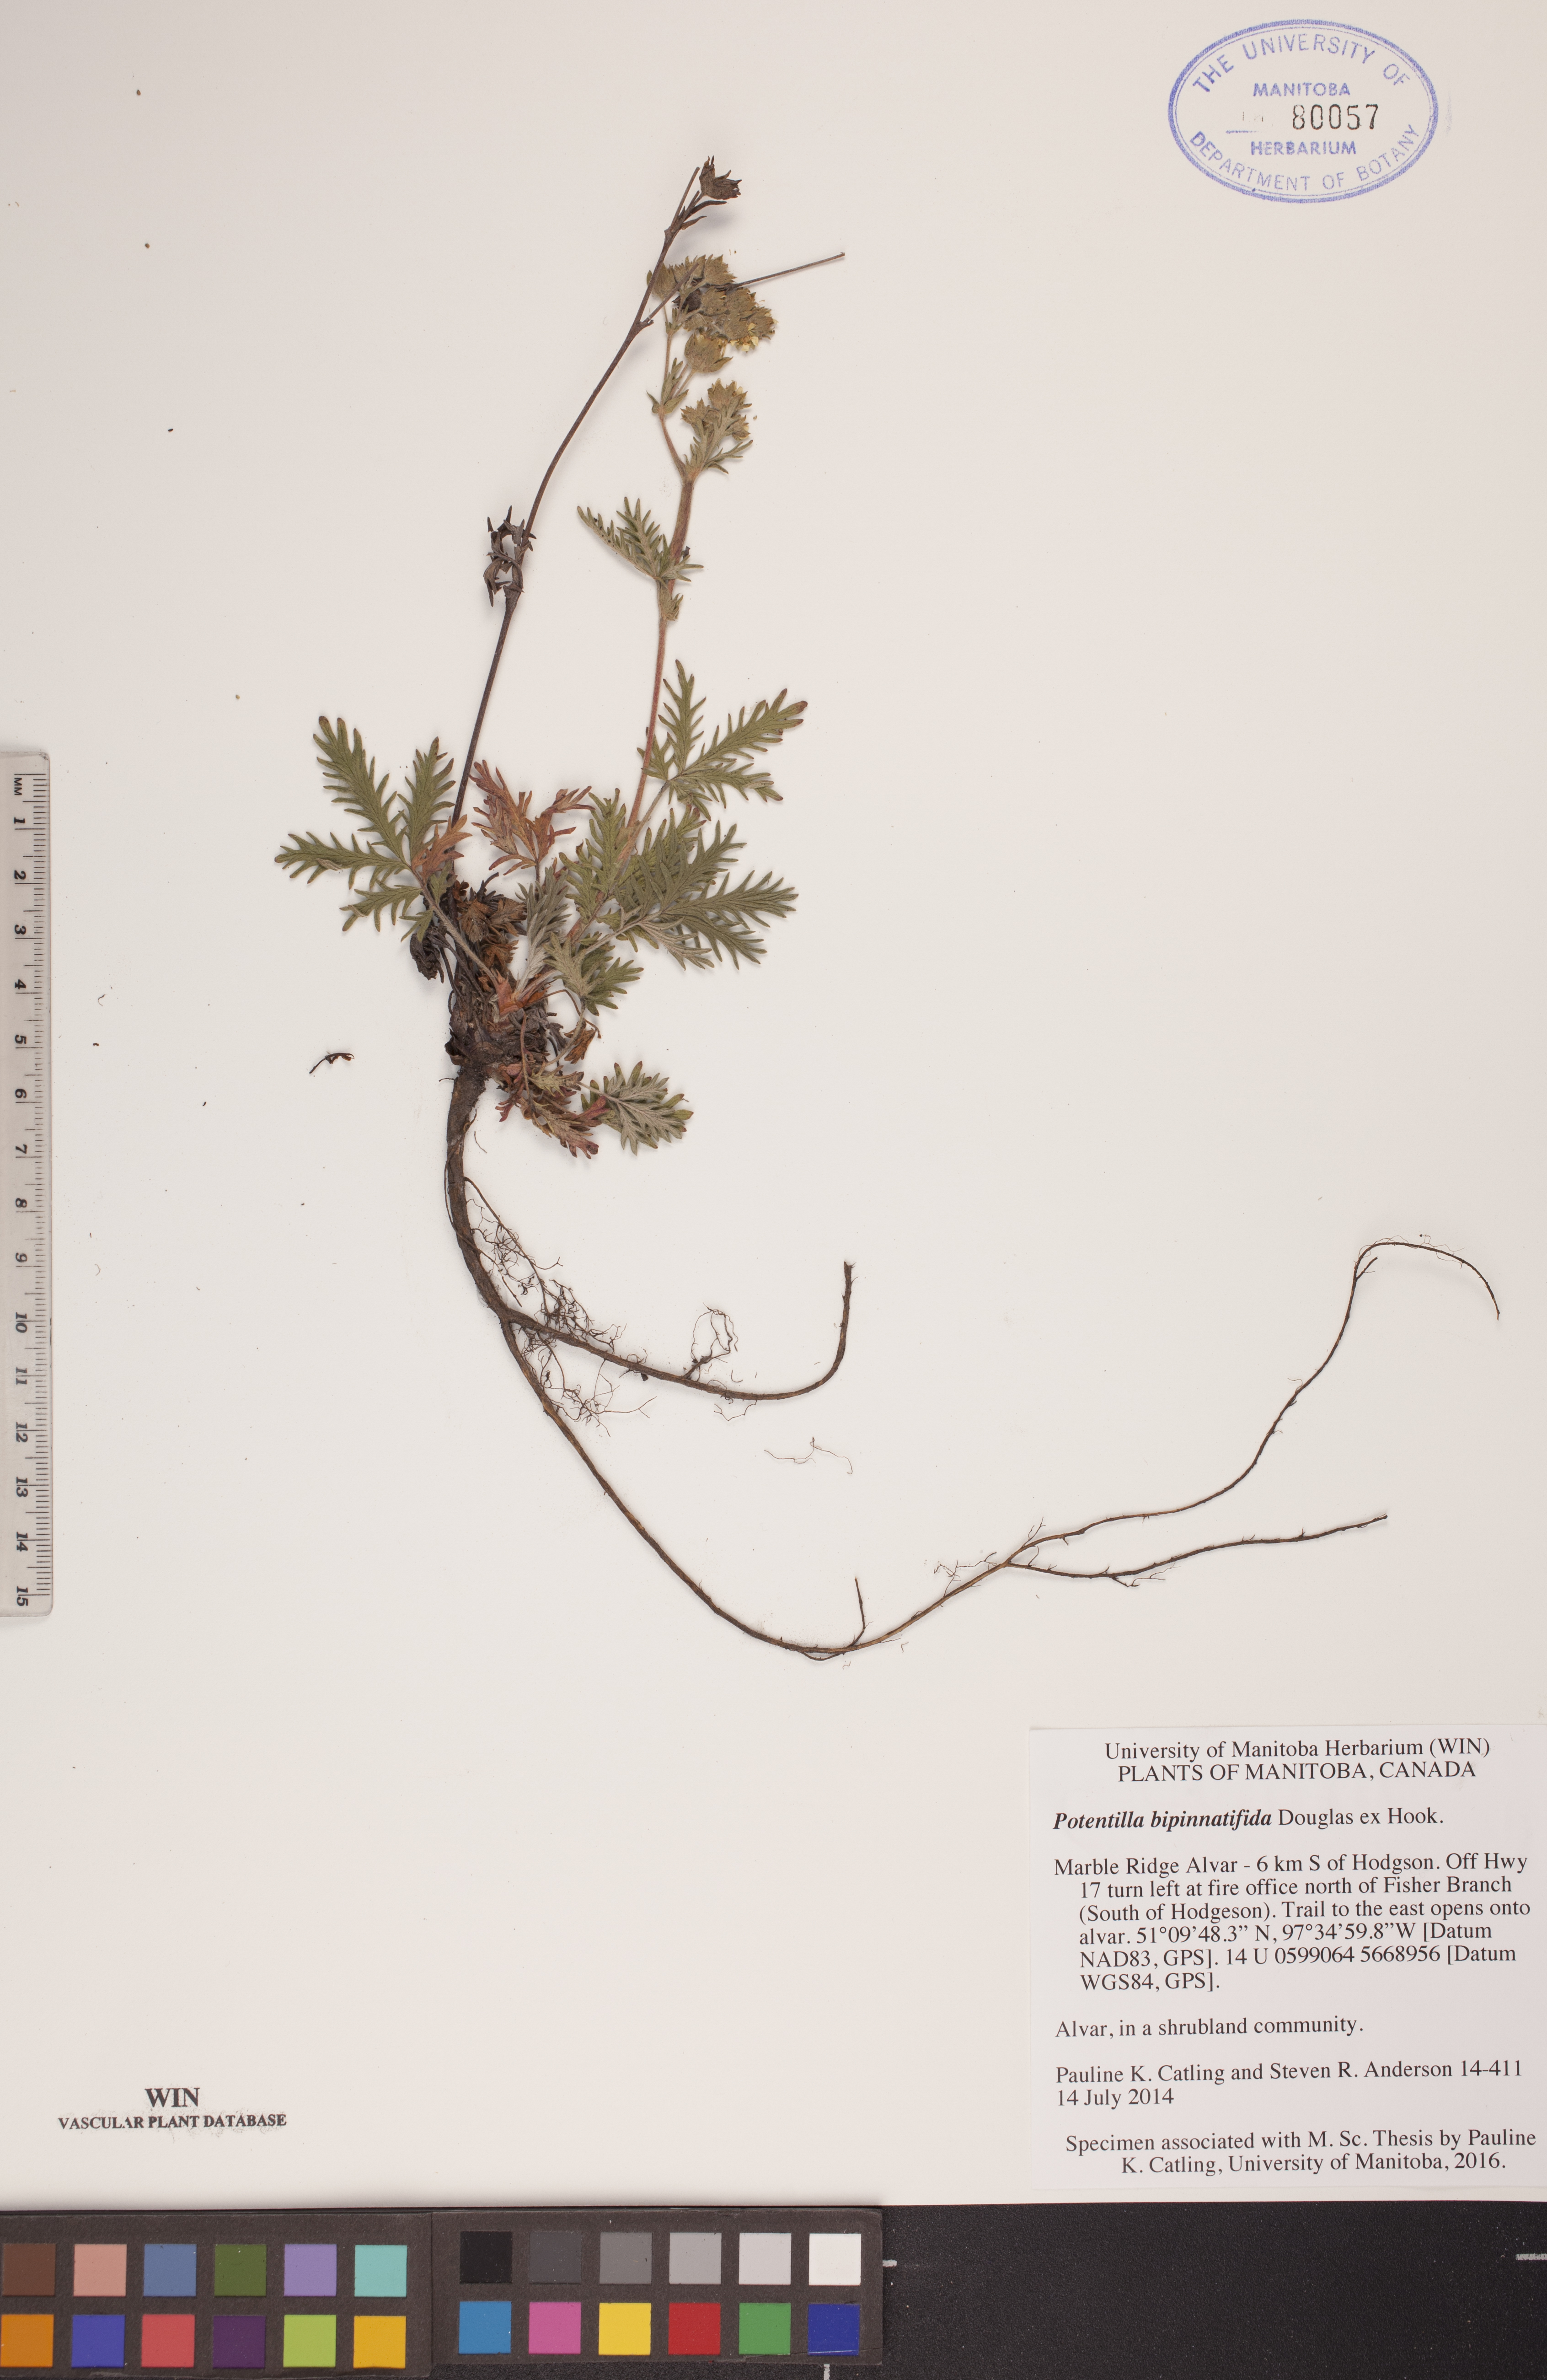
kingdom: Plantae
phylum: Tracheophyta
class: Magnoliopsida
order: Rosales
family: Rosaceae
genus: Potentilla
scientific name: Potentilla bipinnatifida
